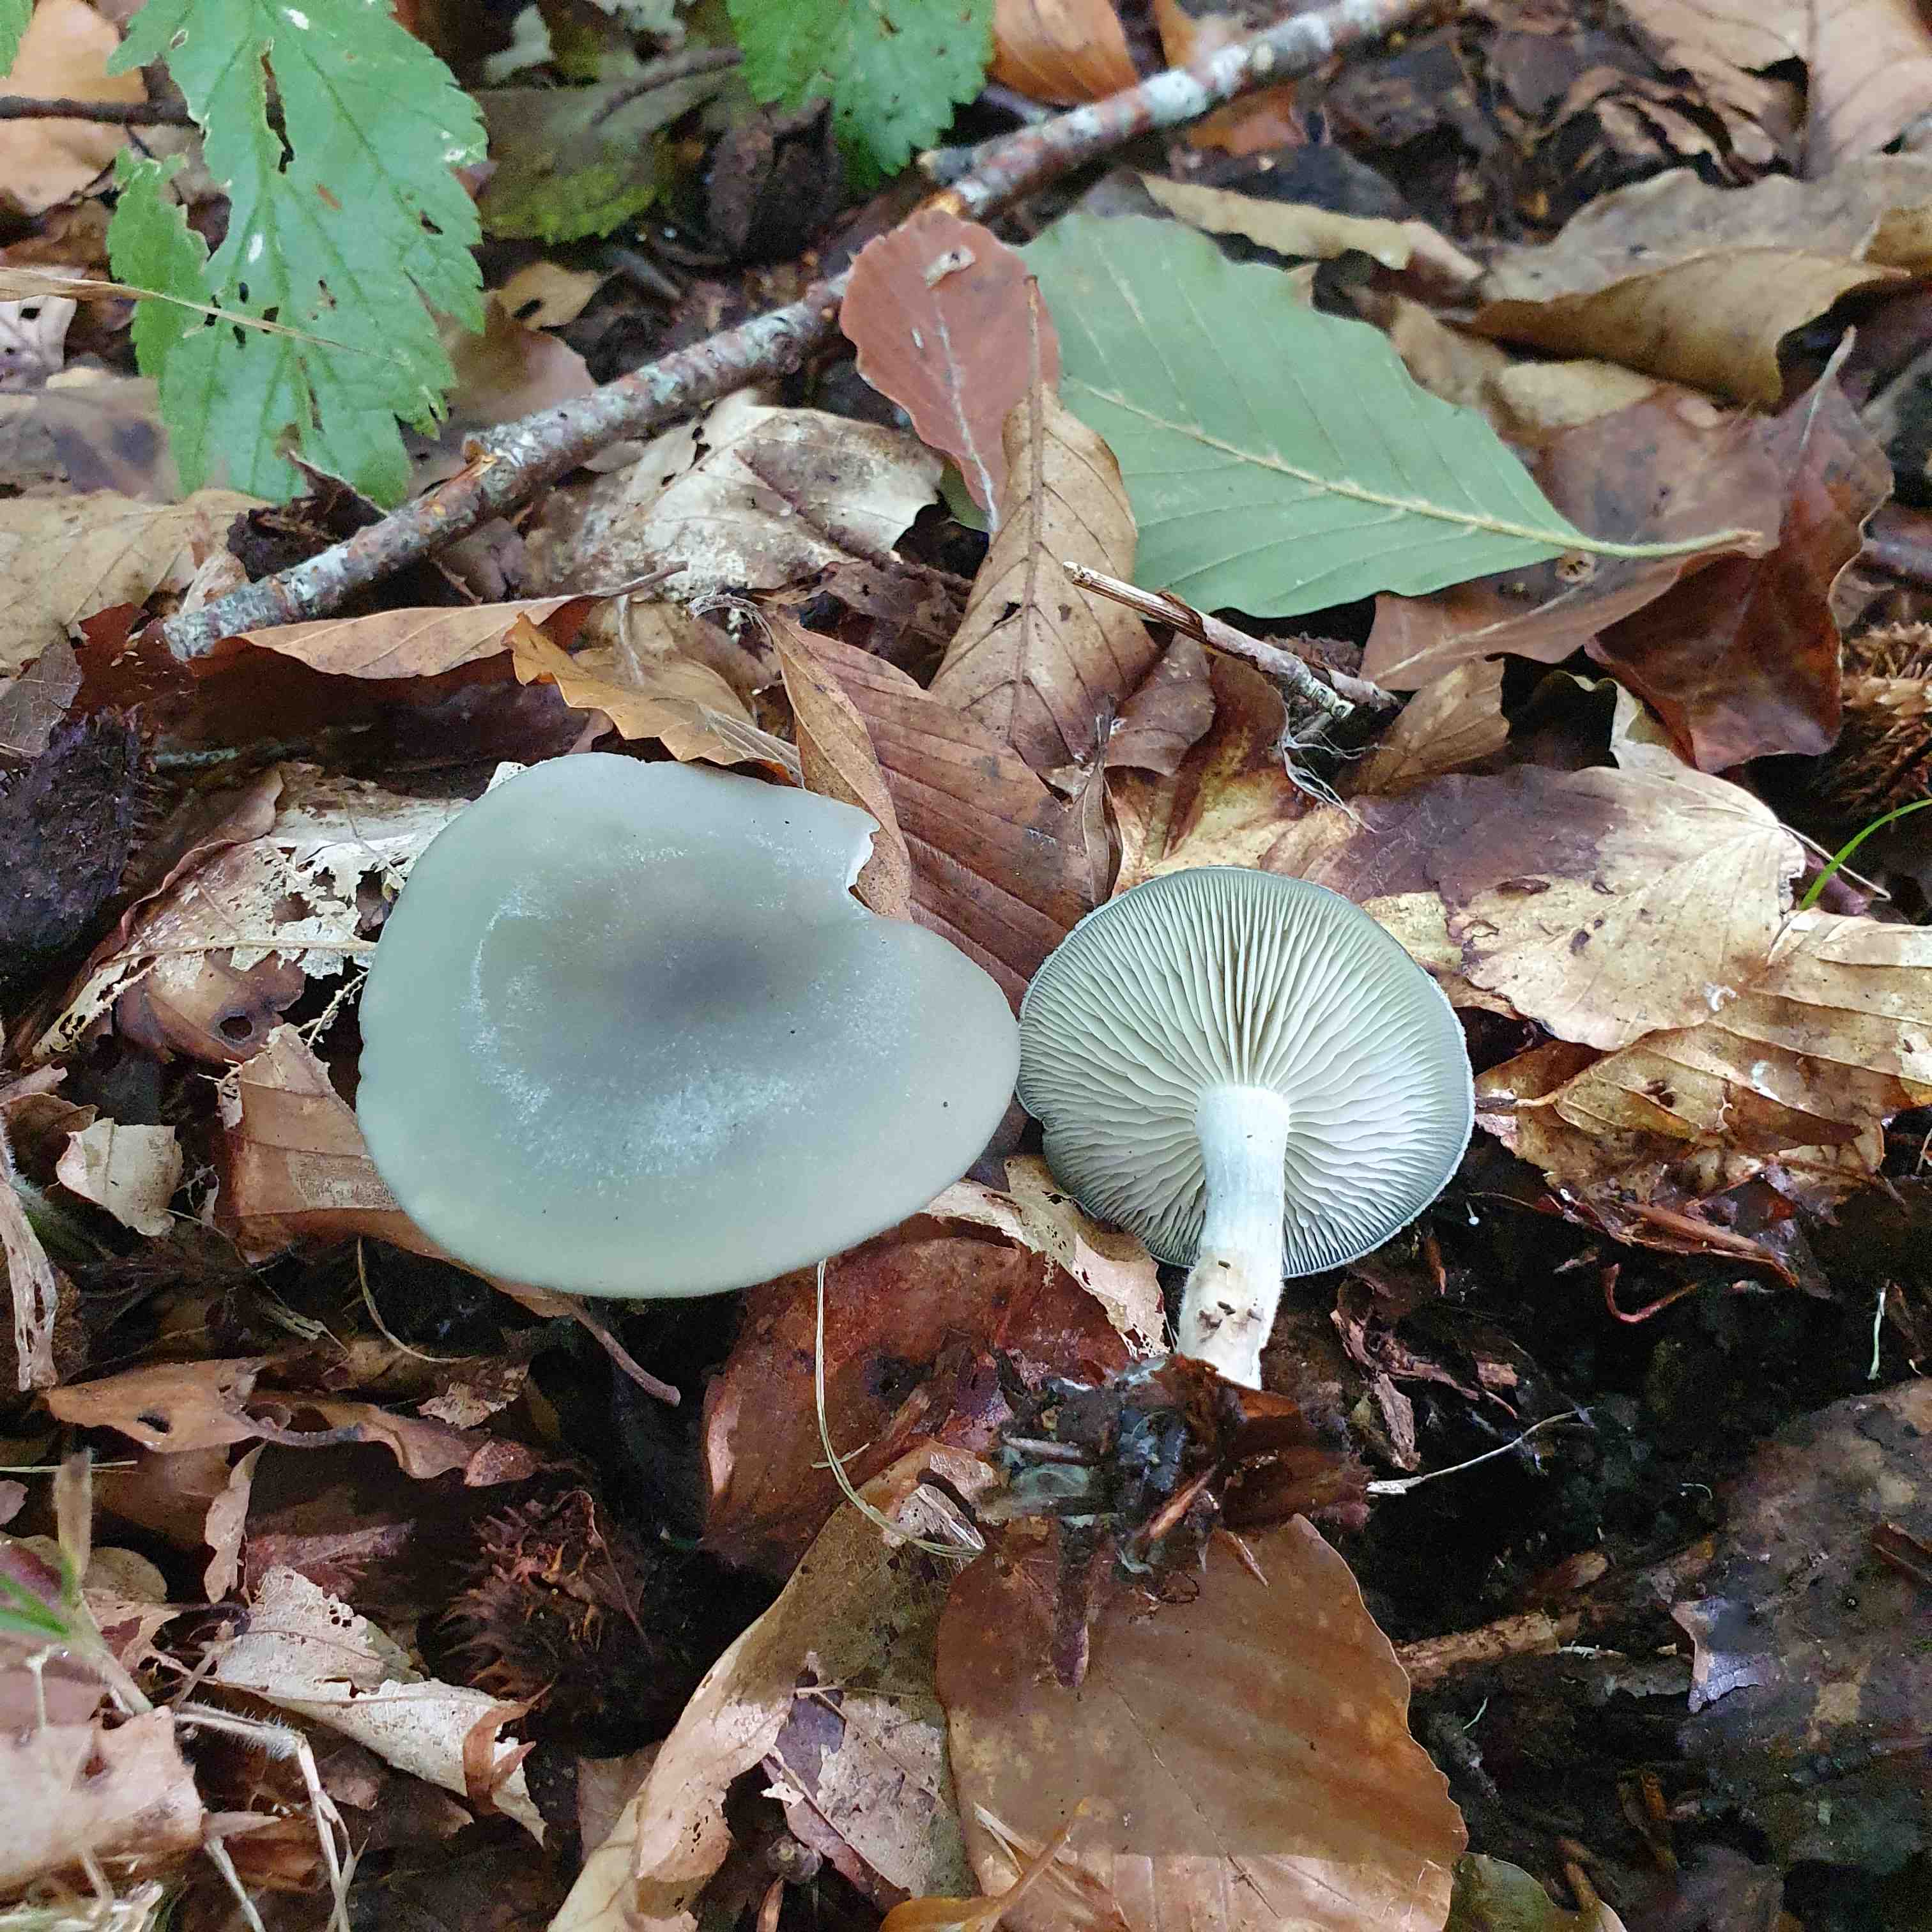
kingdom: Fungi
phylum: Basidiomycota
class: Agaricomycetes
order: Agaricales
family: Tricholomataceae
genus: Clitocybe
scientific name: Clitocybe odora
